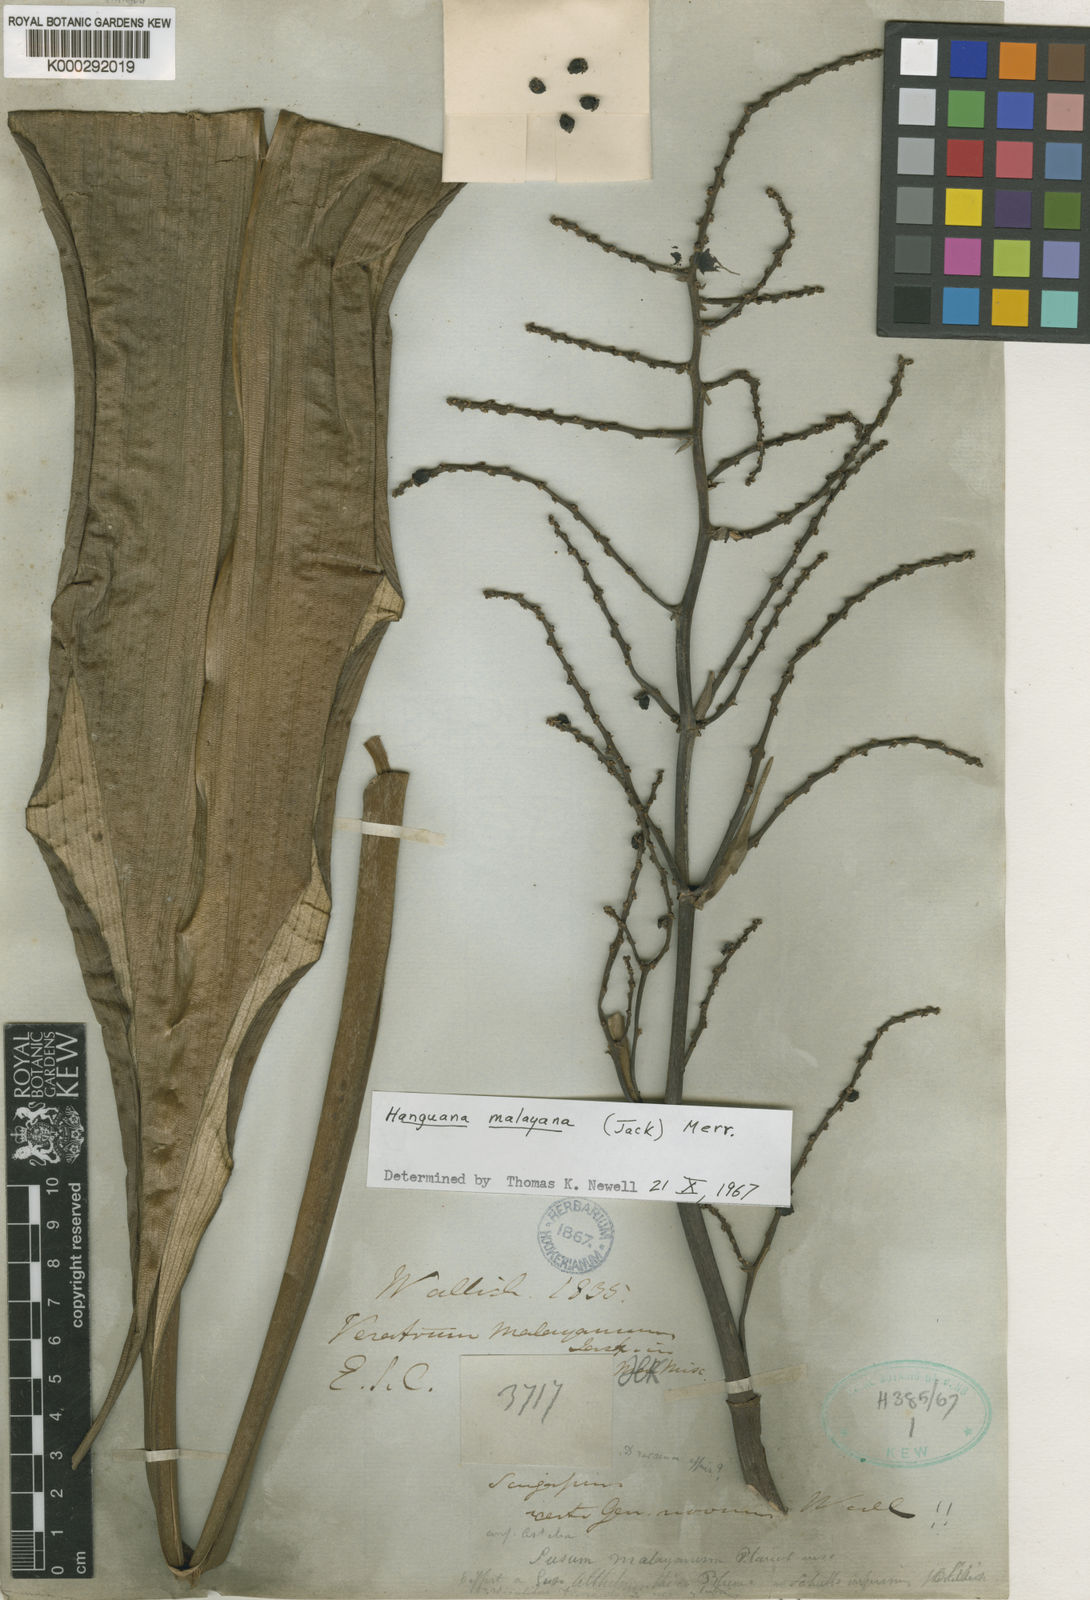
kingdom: Plantae
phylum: Tracheophyta
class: Liliopsida
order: Commelinales
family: Hanguanaceae
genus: Hanguana
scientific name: Hanguana malayana
